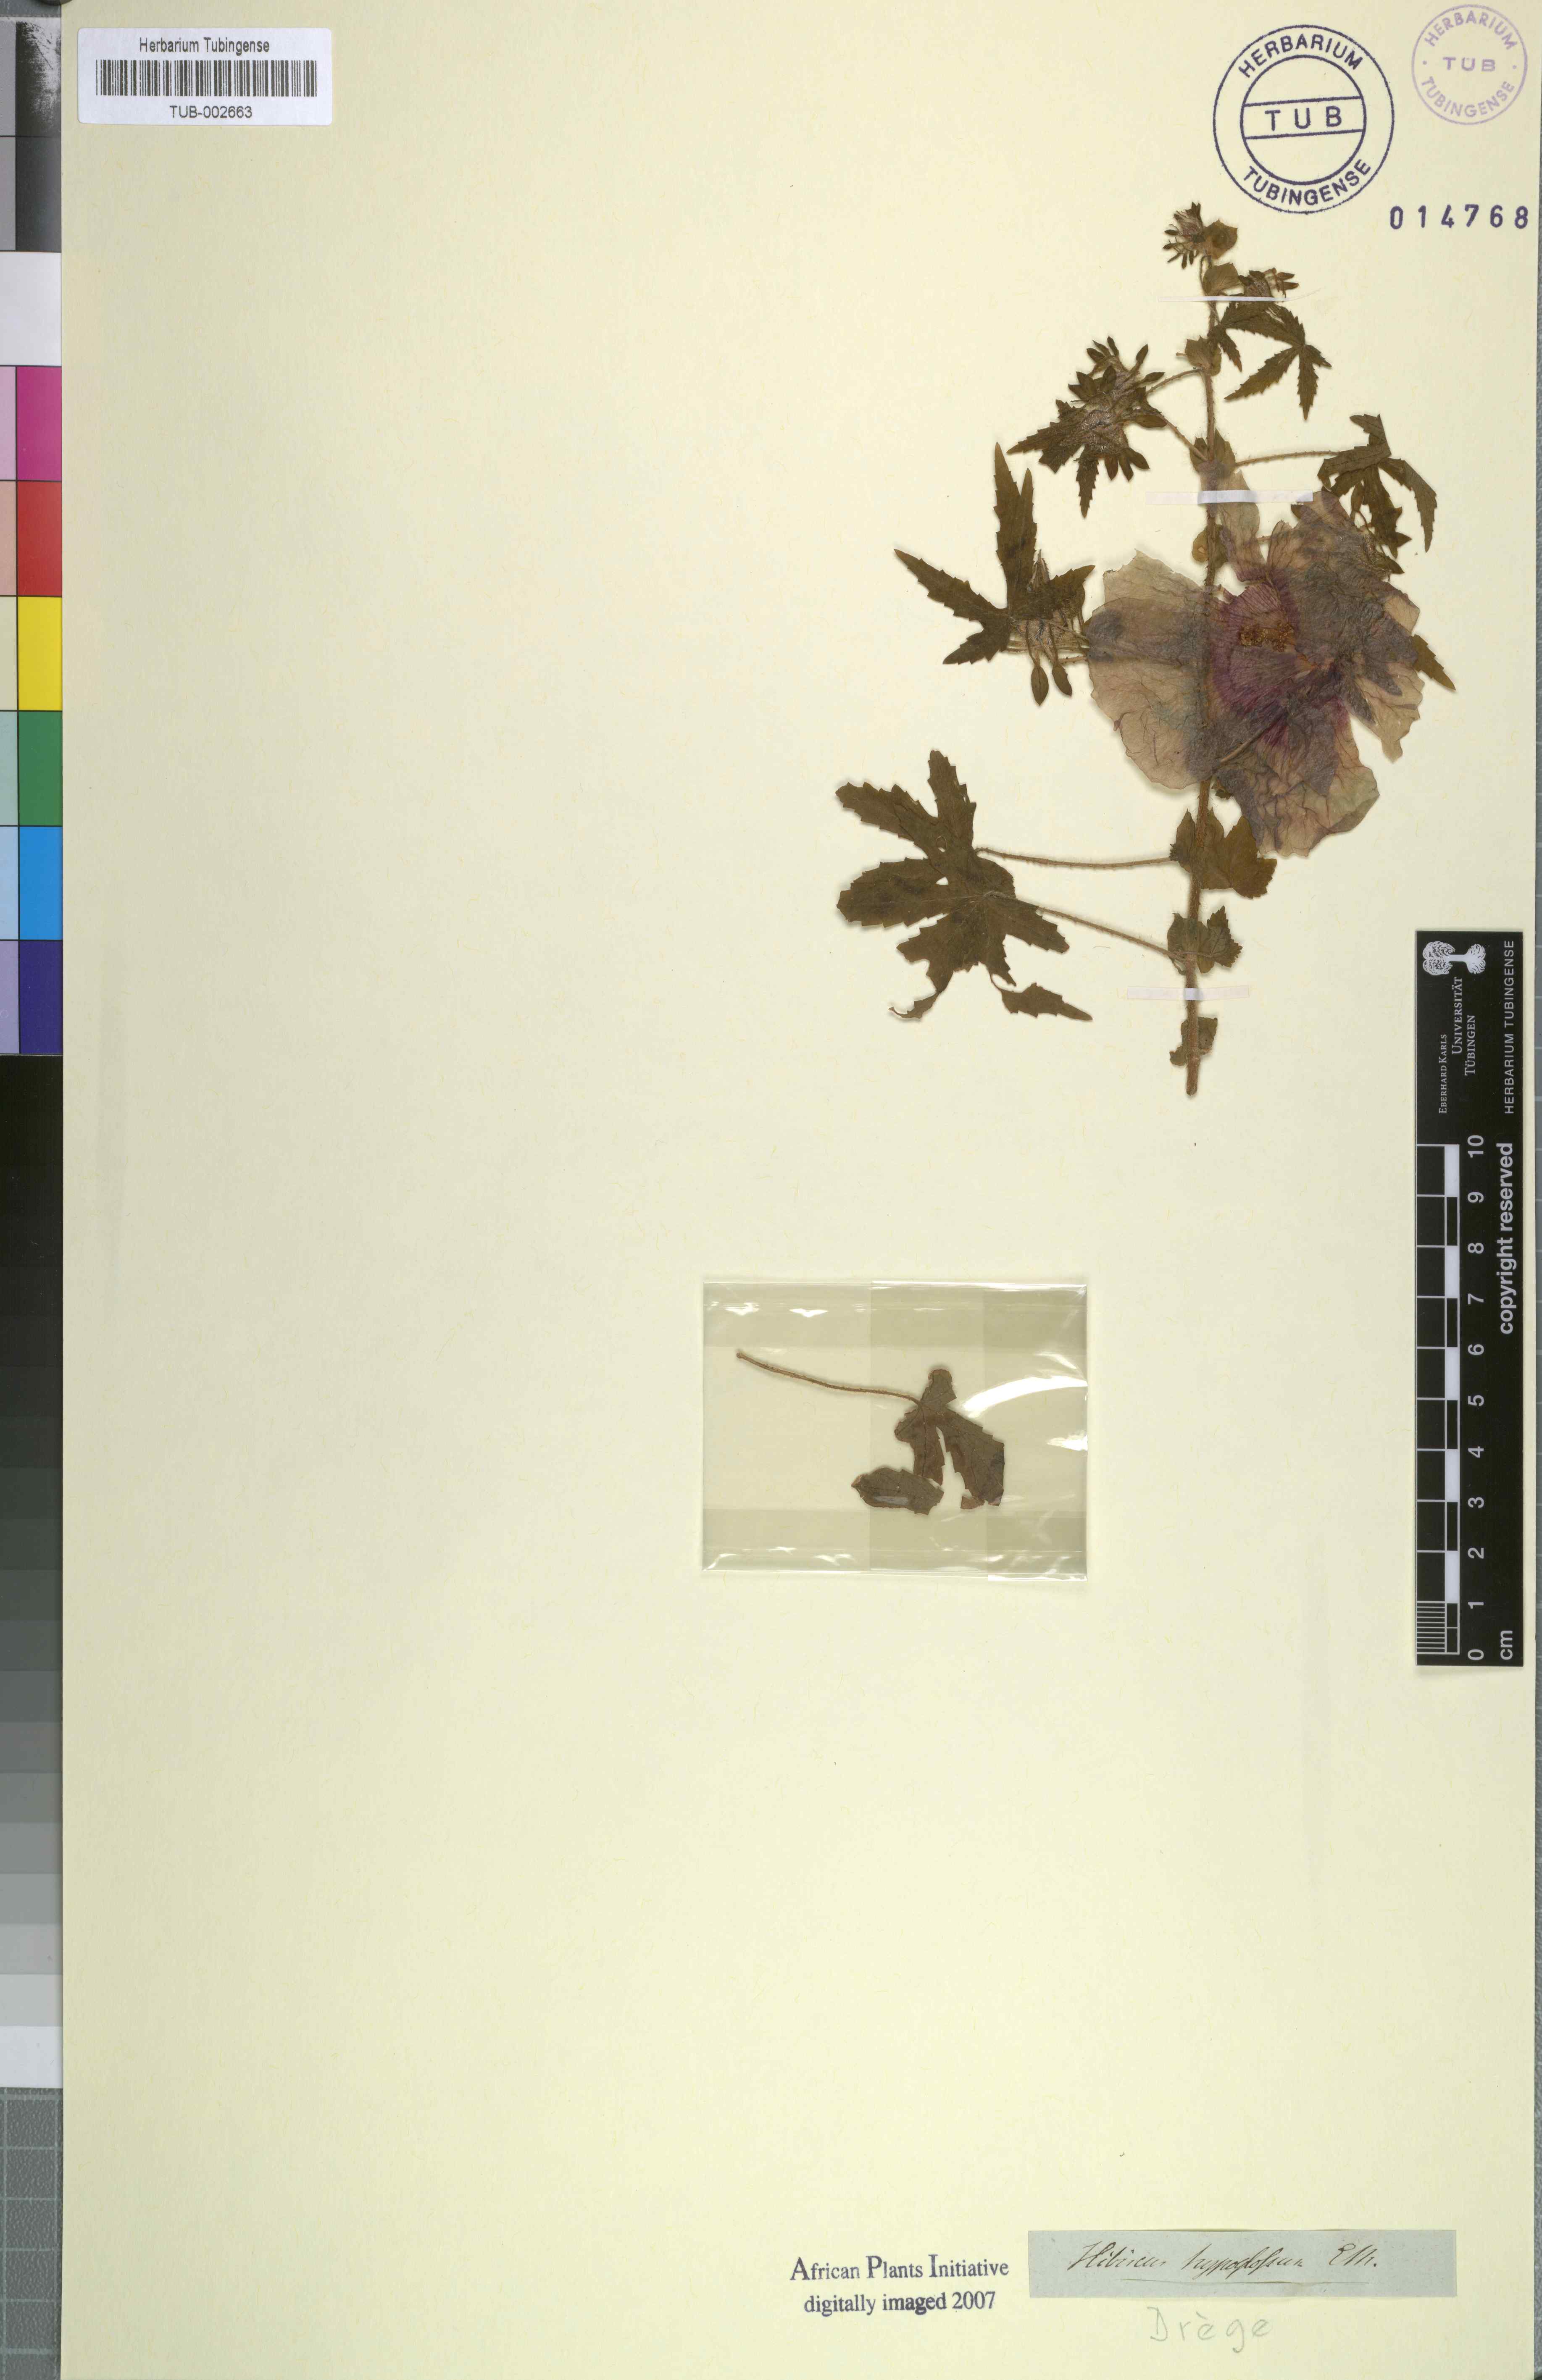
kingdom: Plantae
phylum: Tracheophyta
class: Magnoliopsida
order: Malvales
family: Malvaceae
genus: Hibiscus
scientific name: Hibiscus surattensis
